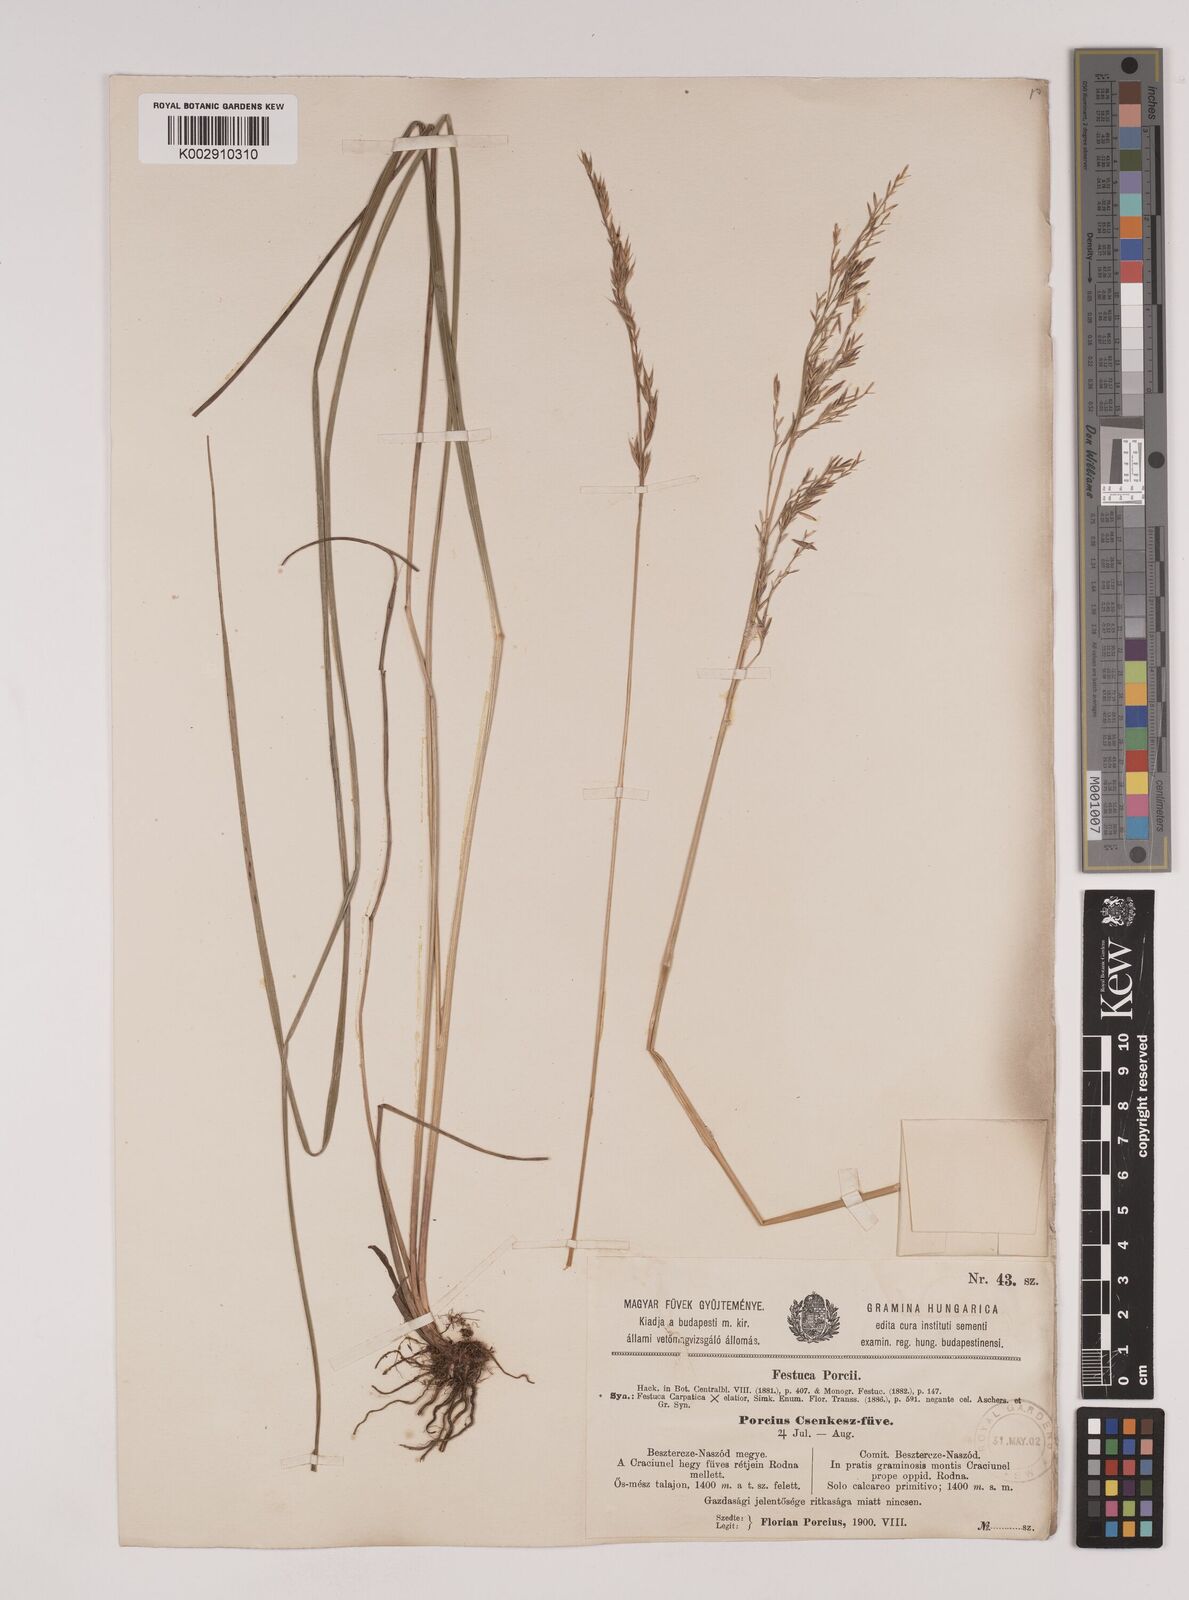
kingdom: Plantae
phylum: Tracheophyta
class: Liliopsida
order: Poales
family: Poaceae
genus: Festuca
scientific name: Festuca porcii
